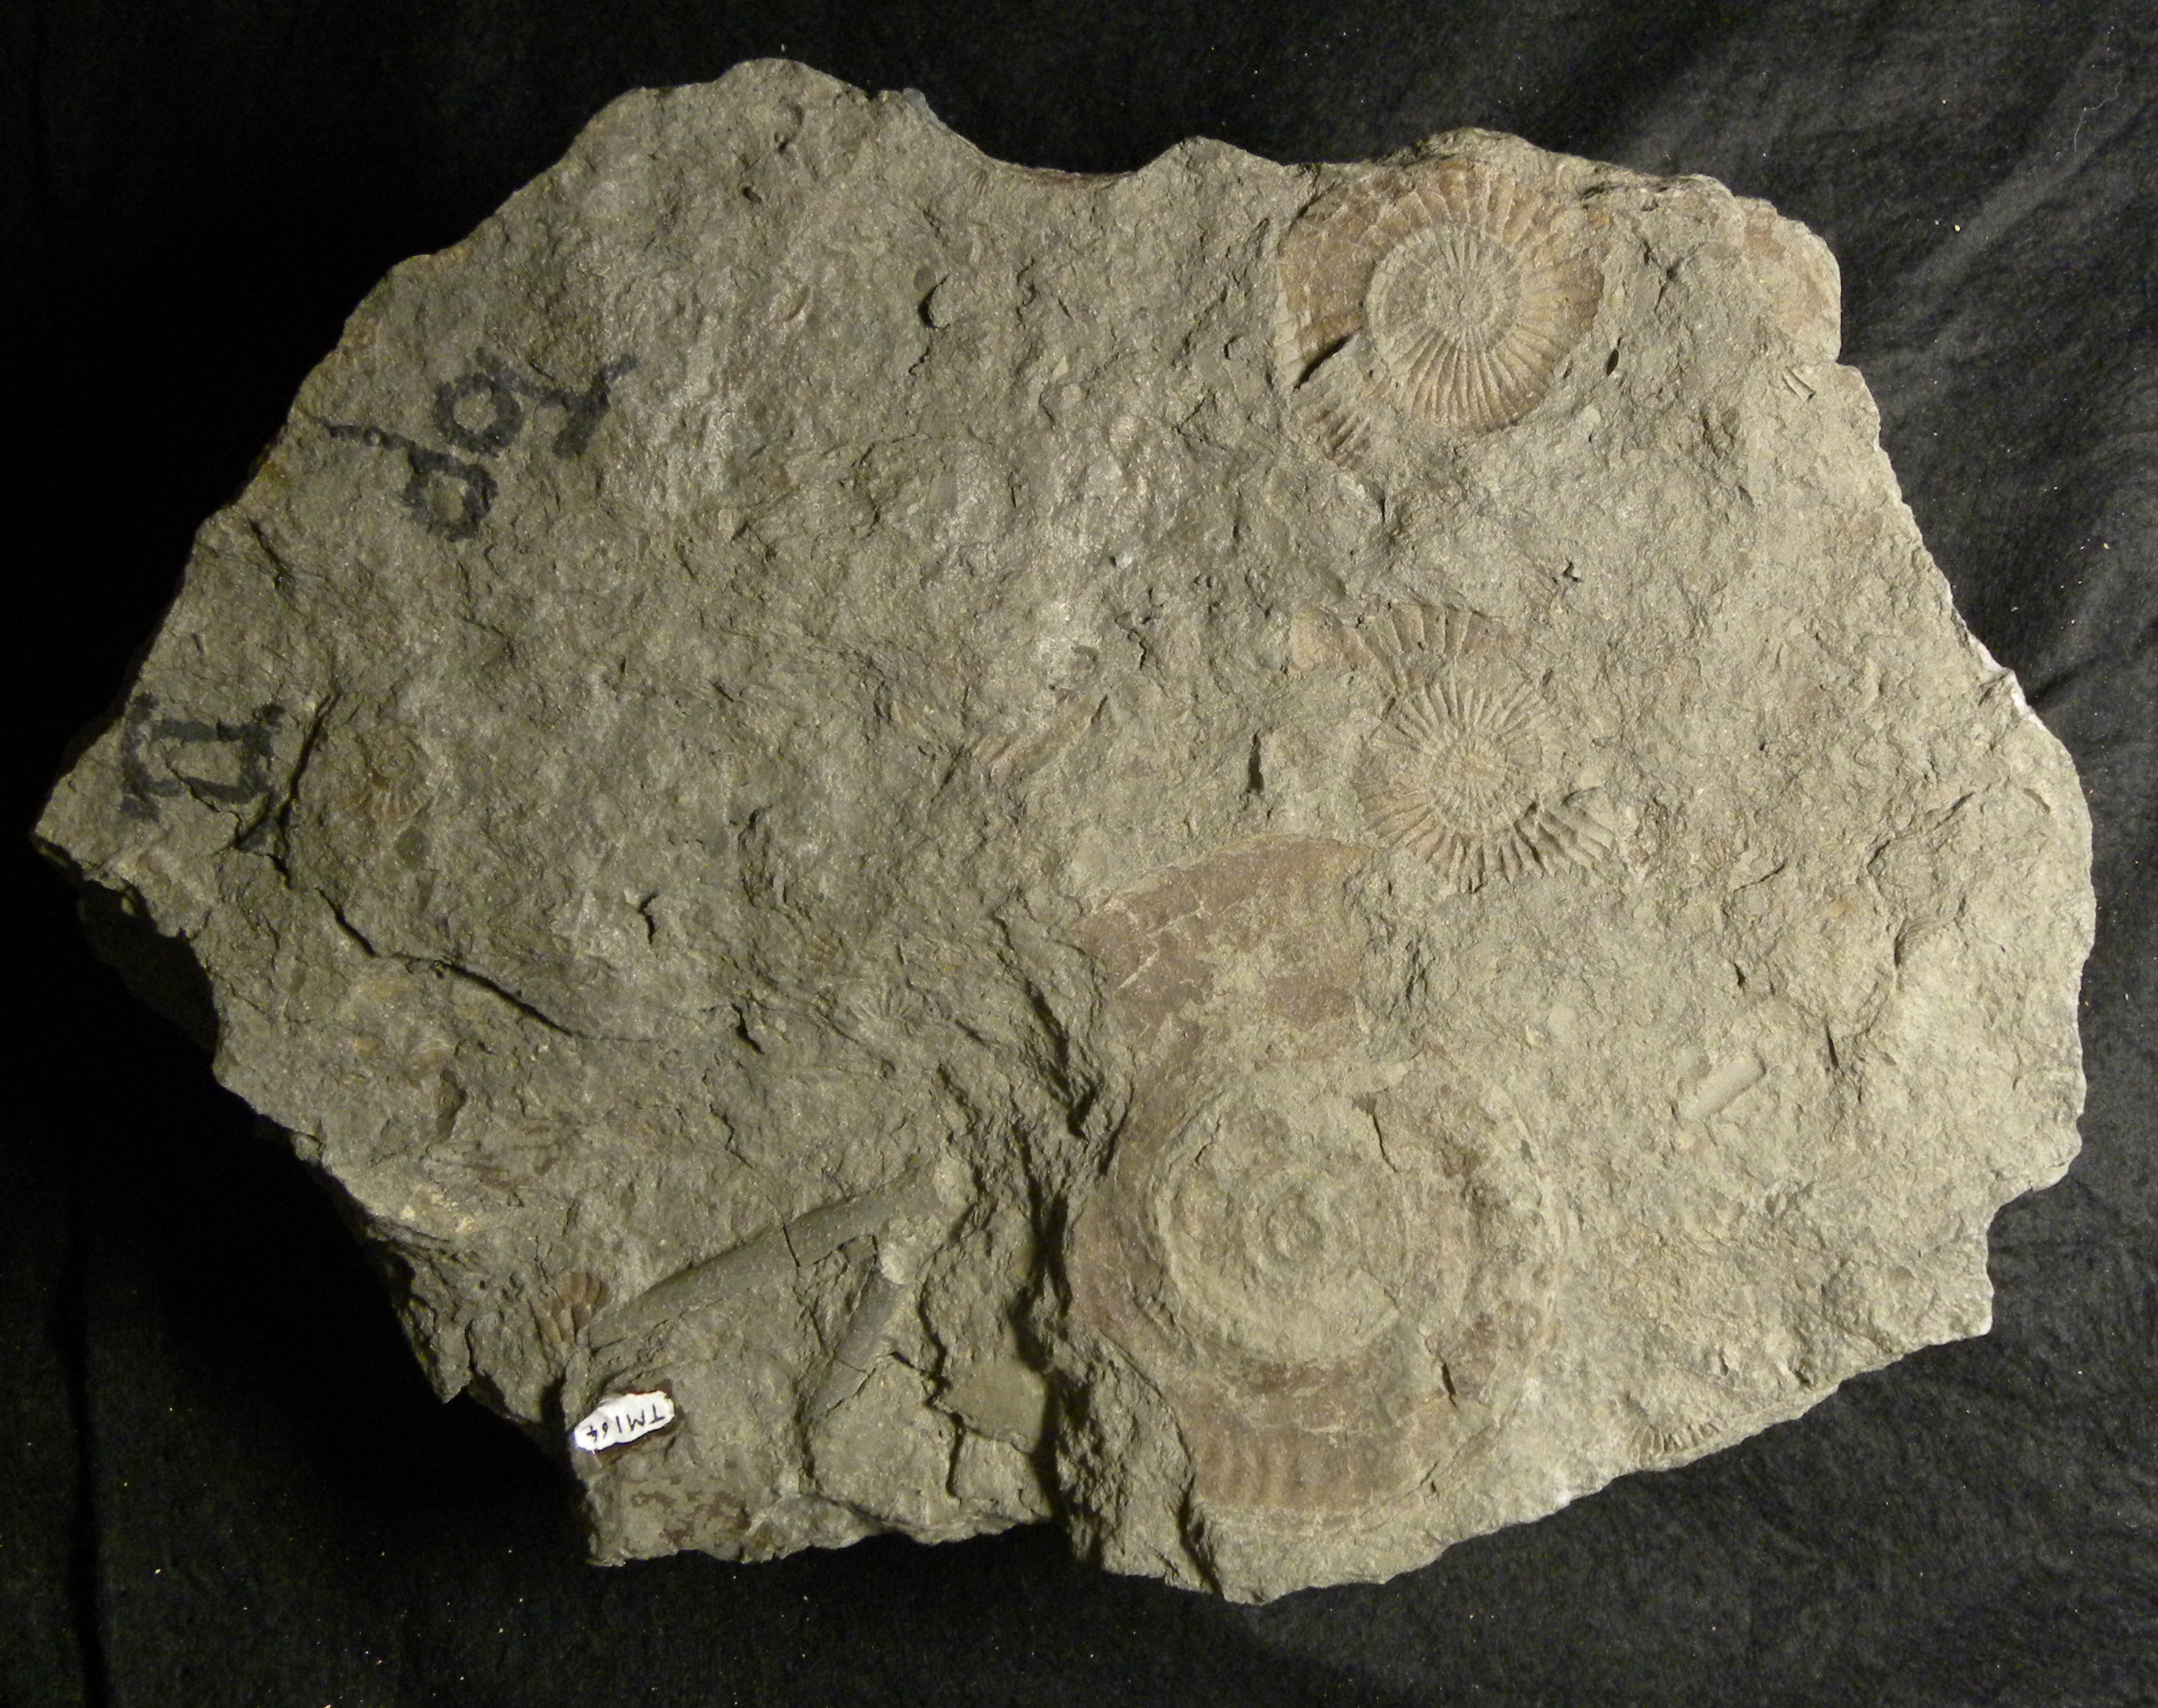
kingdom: Animalia
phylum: Mollusca
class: Cephalopoda
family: Hildoceratidae
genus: Hildoceras
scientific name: Hildoceras
